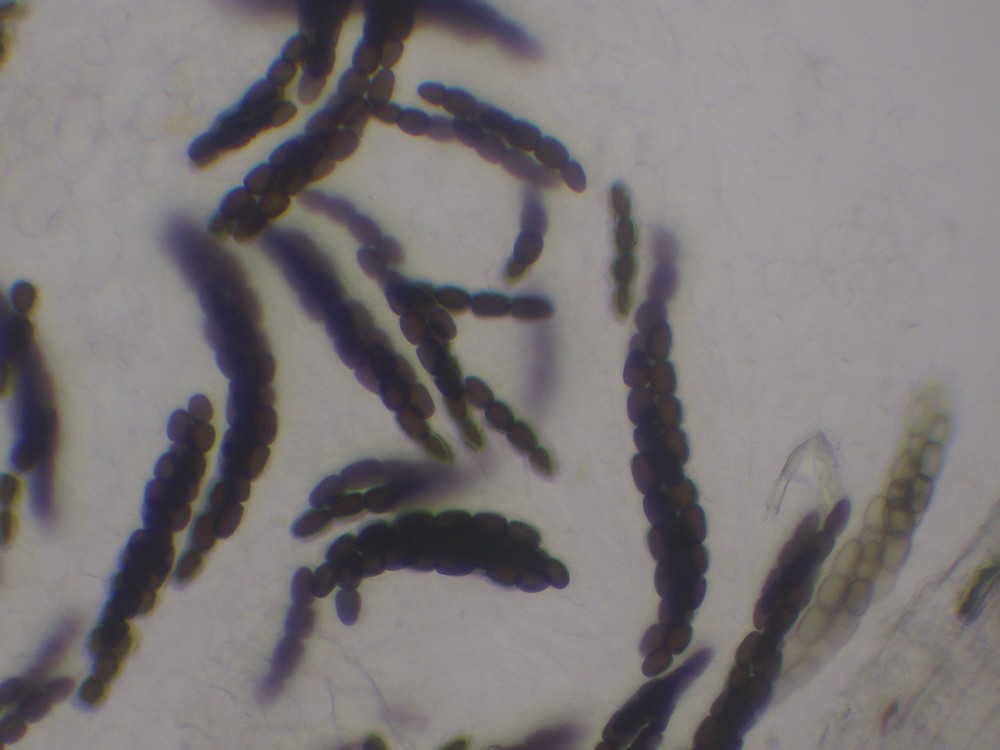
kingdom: Fungi
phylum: Ascomycota
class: Dothideomycetes
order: Pleosporales
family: Sporormiaceae
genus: Sporormiella
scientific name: Sporormiella lageniformis
